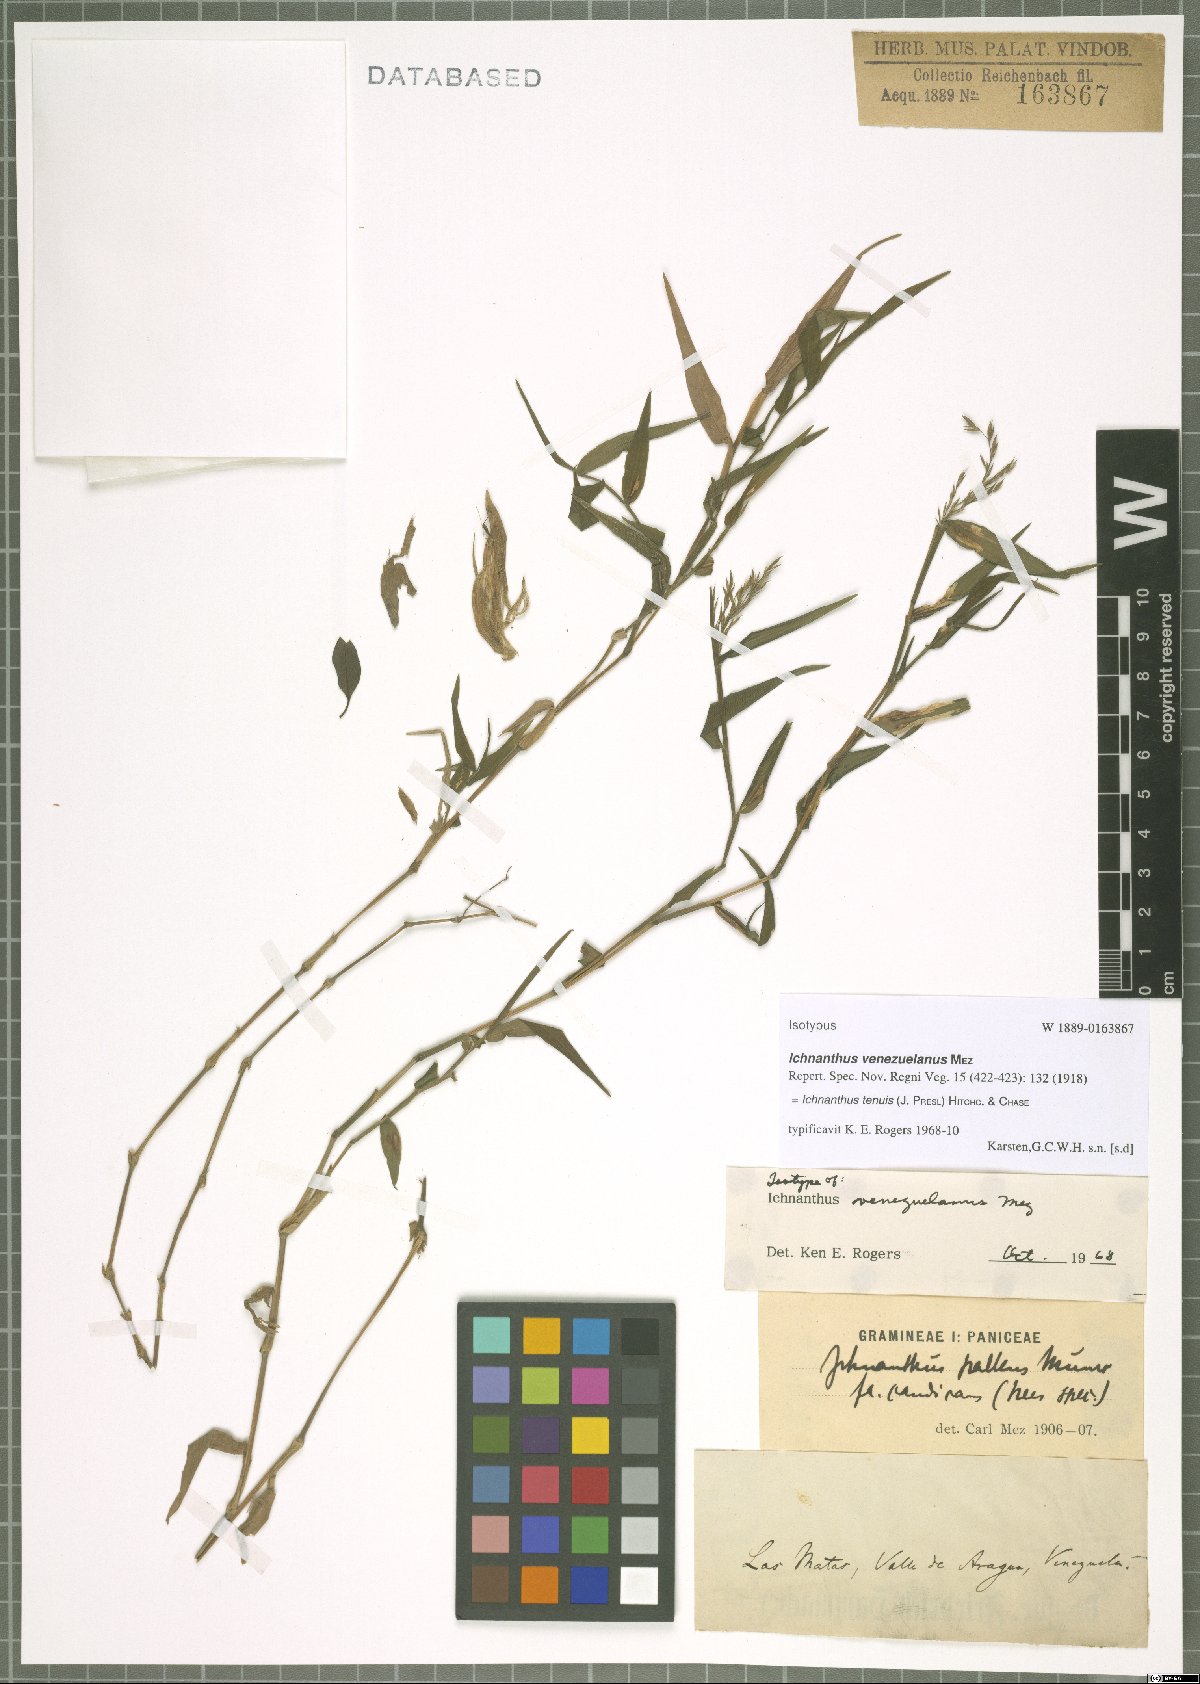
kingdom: Plantae
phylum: Tracheophyta
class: Liliopsida
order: Poales
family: Poaceae
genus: Ichnanthus
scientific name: Ichnanthus tenuis
